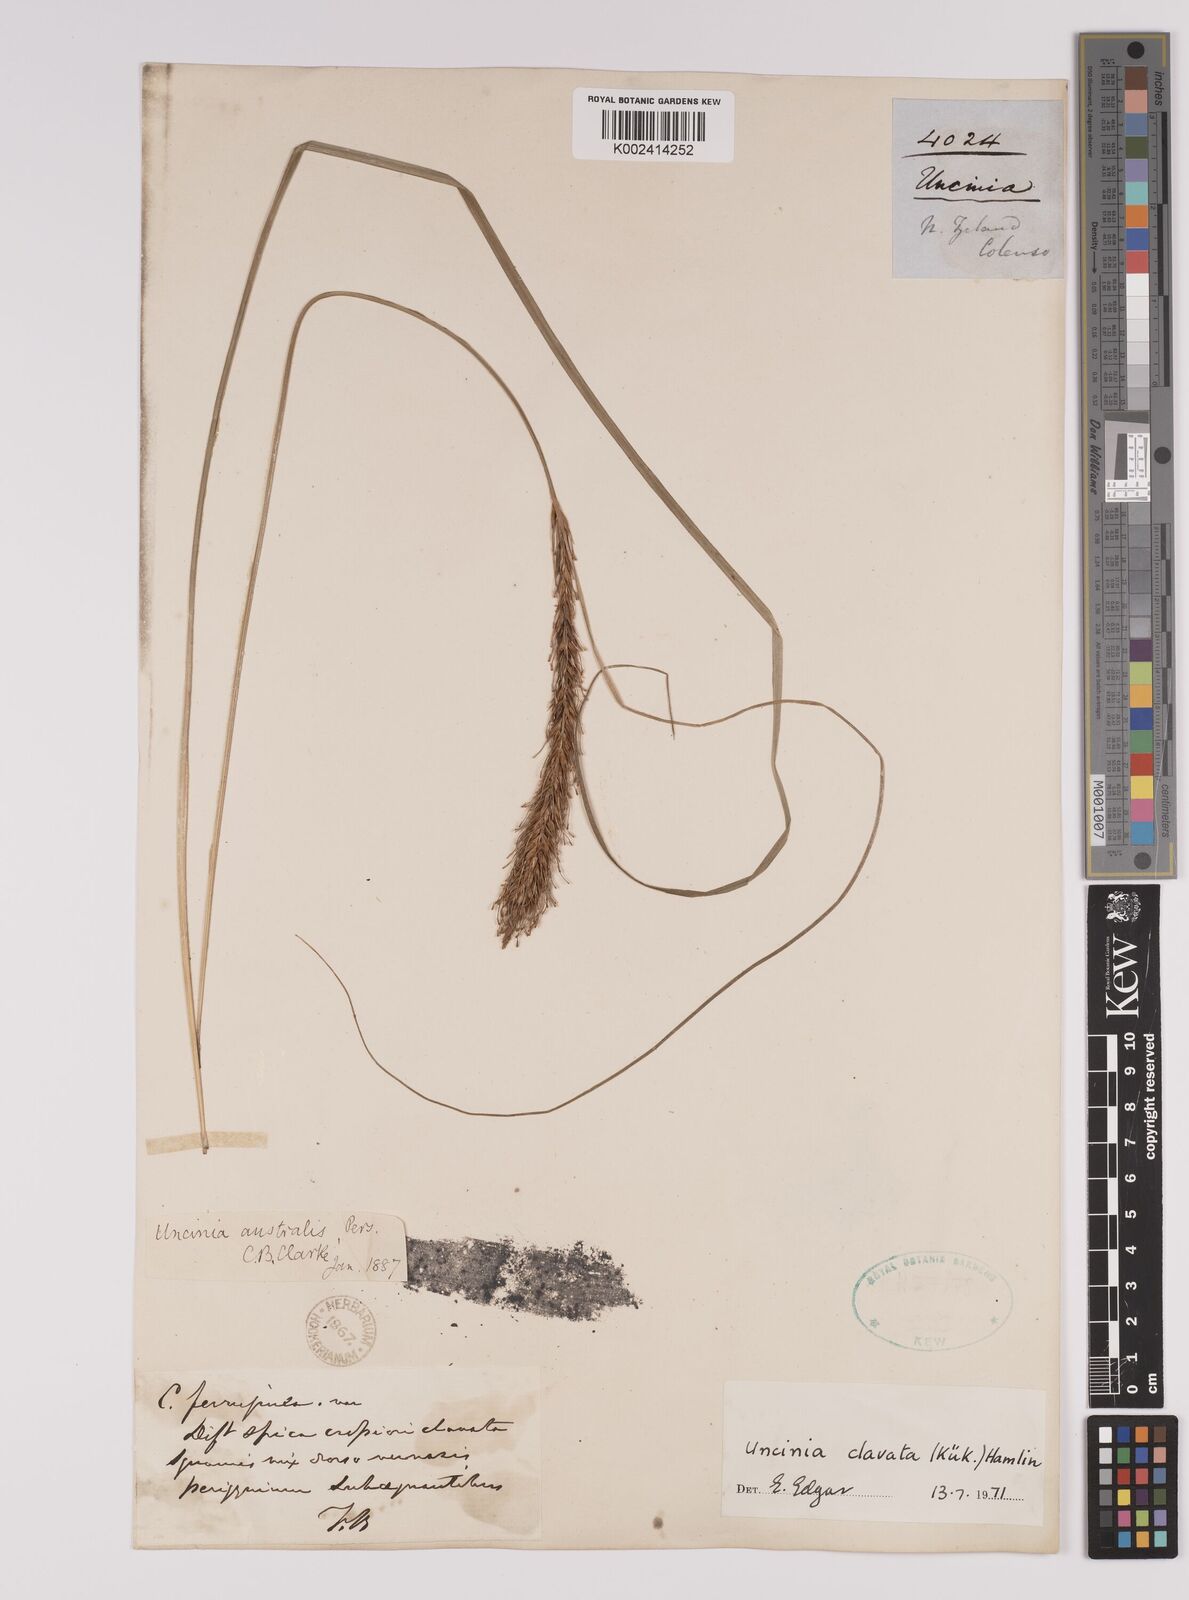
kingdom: Plantae
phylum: Tracheophyta
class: Liliopsida
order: Poales
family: Cyperaceae
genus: Carex
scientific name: Carex uncinata
